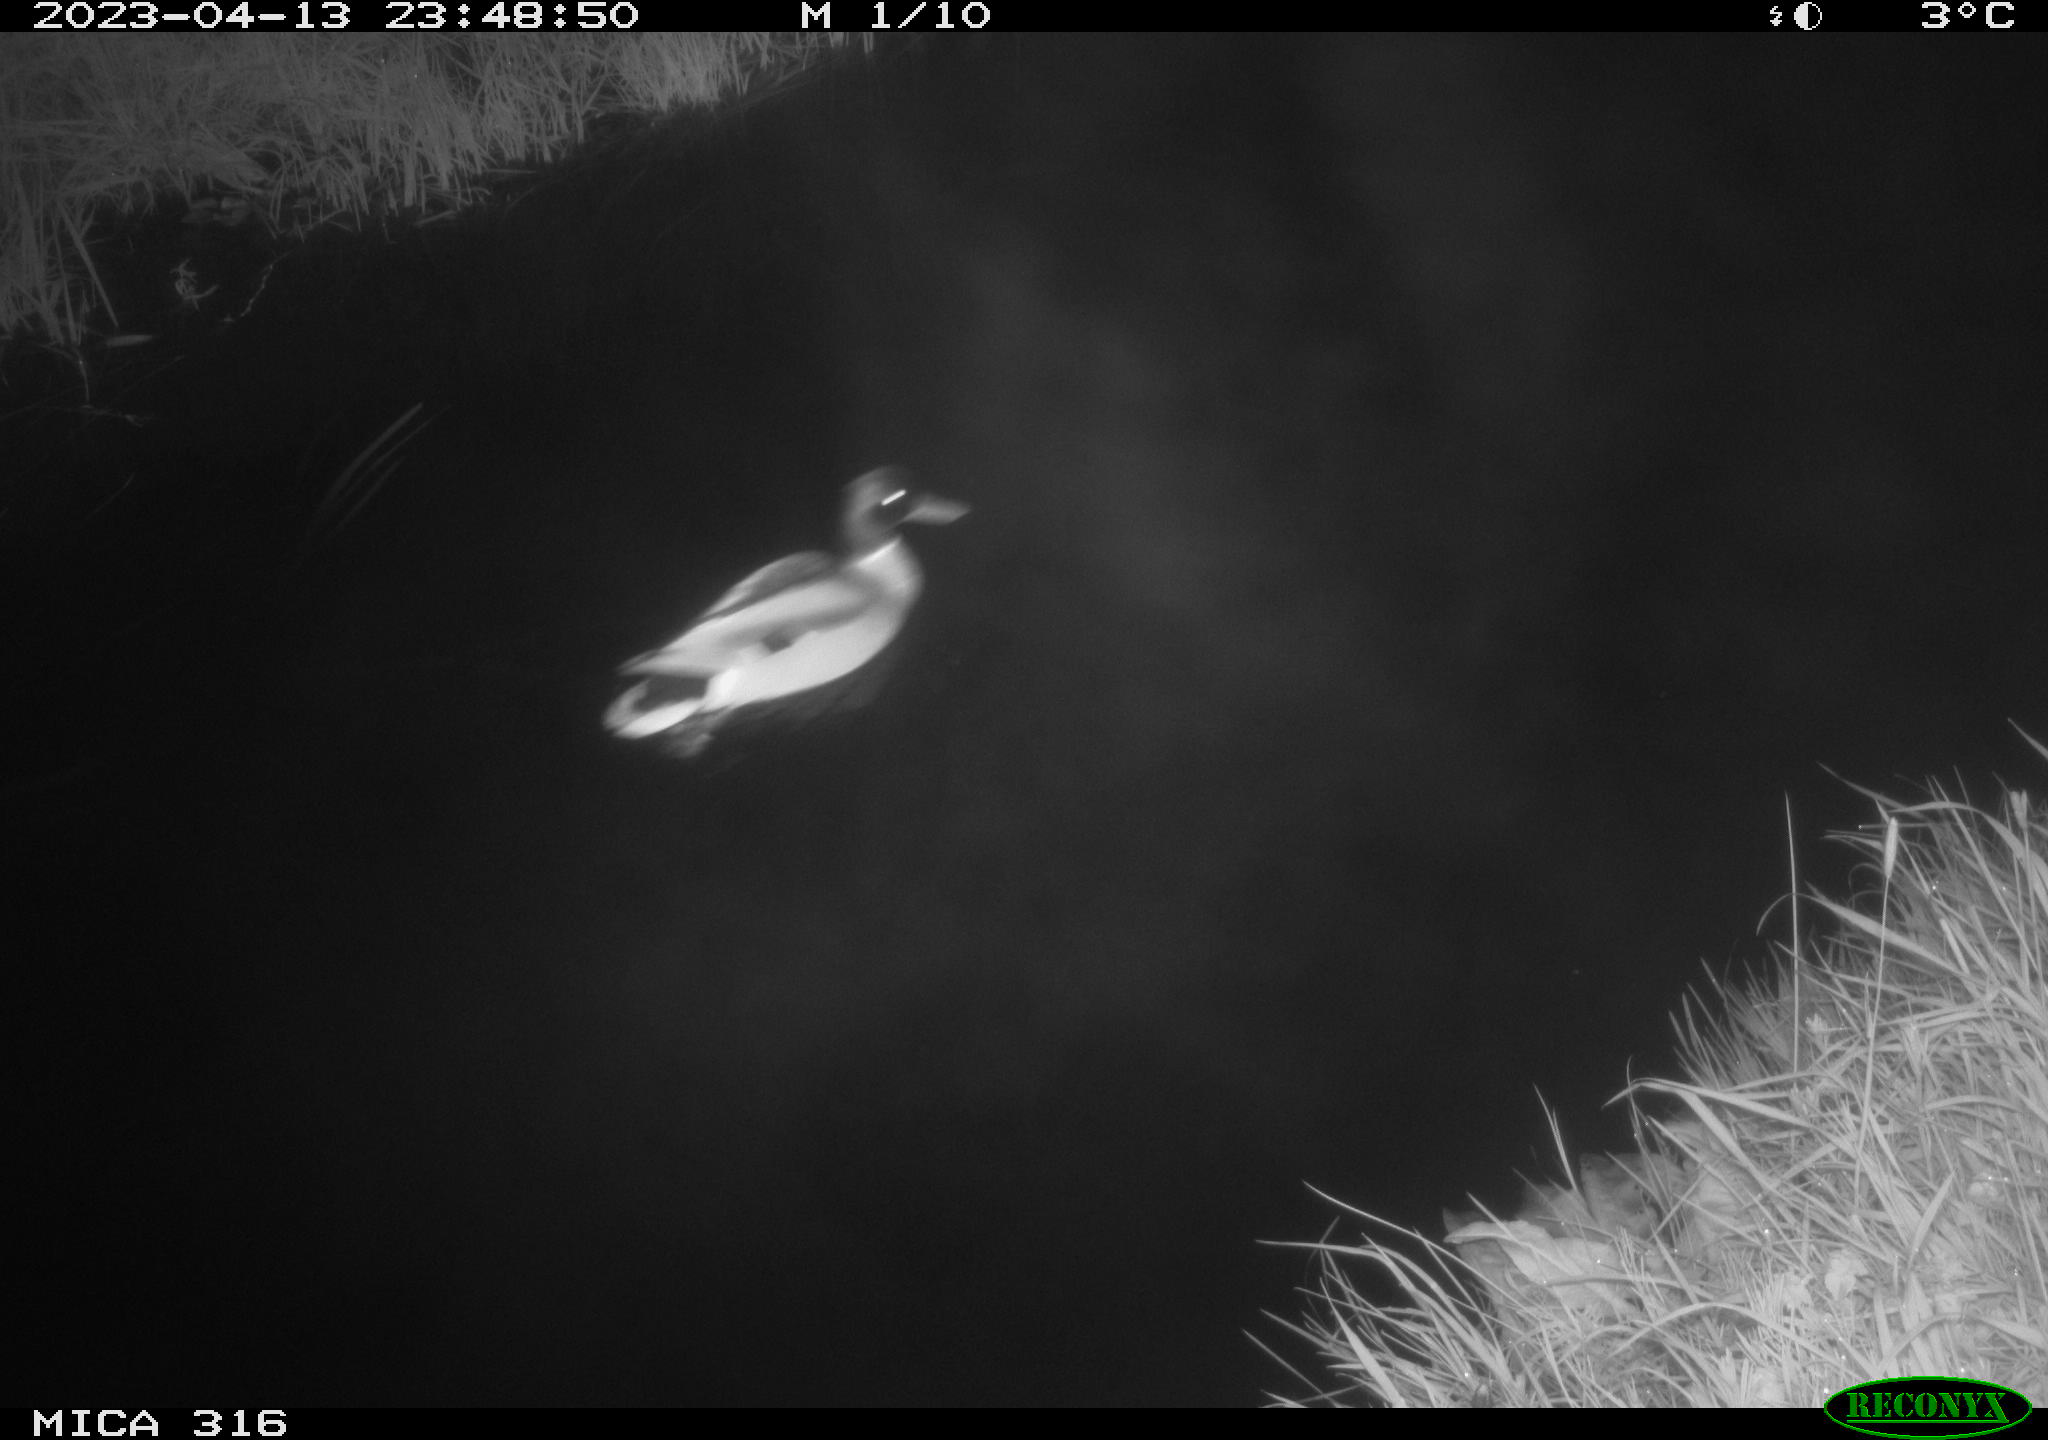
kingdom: Animalia
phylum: Chordata
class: Aves
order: Anseriformes
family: Anatidae
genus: Anas
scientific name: Anas
